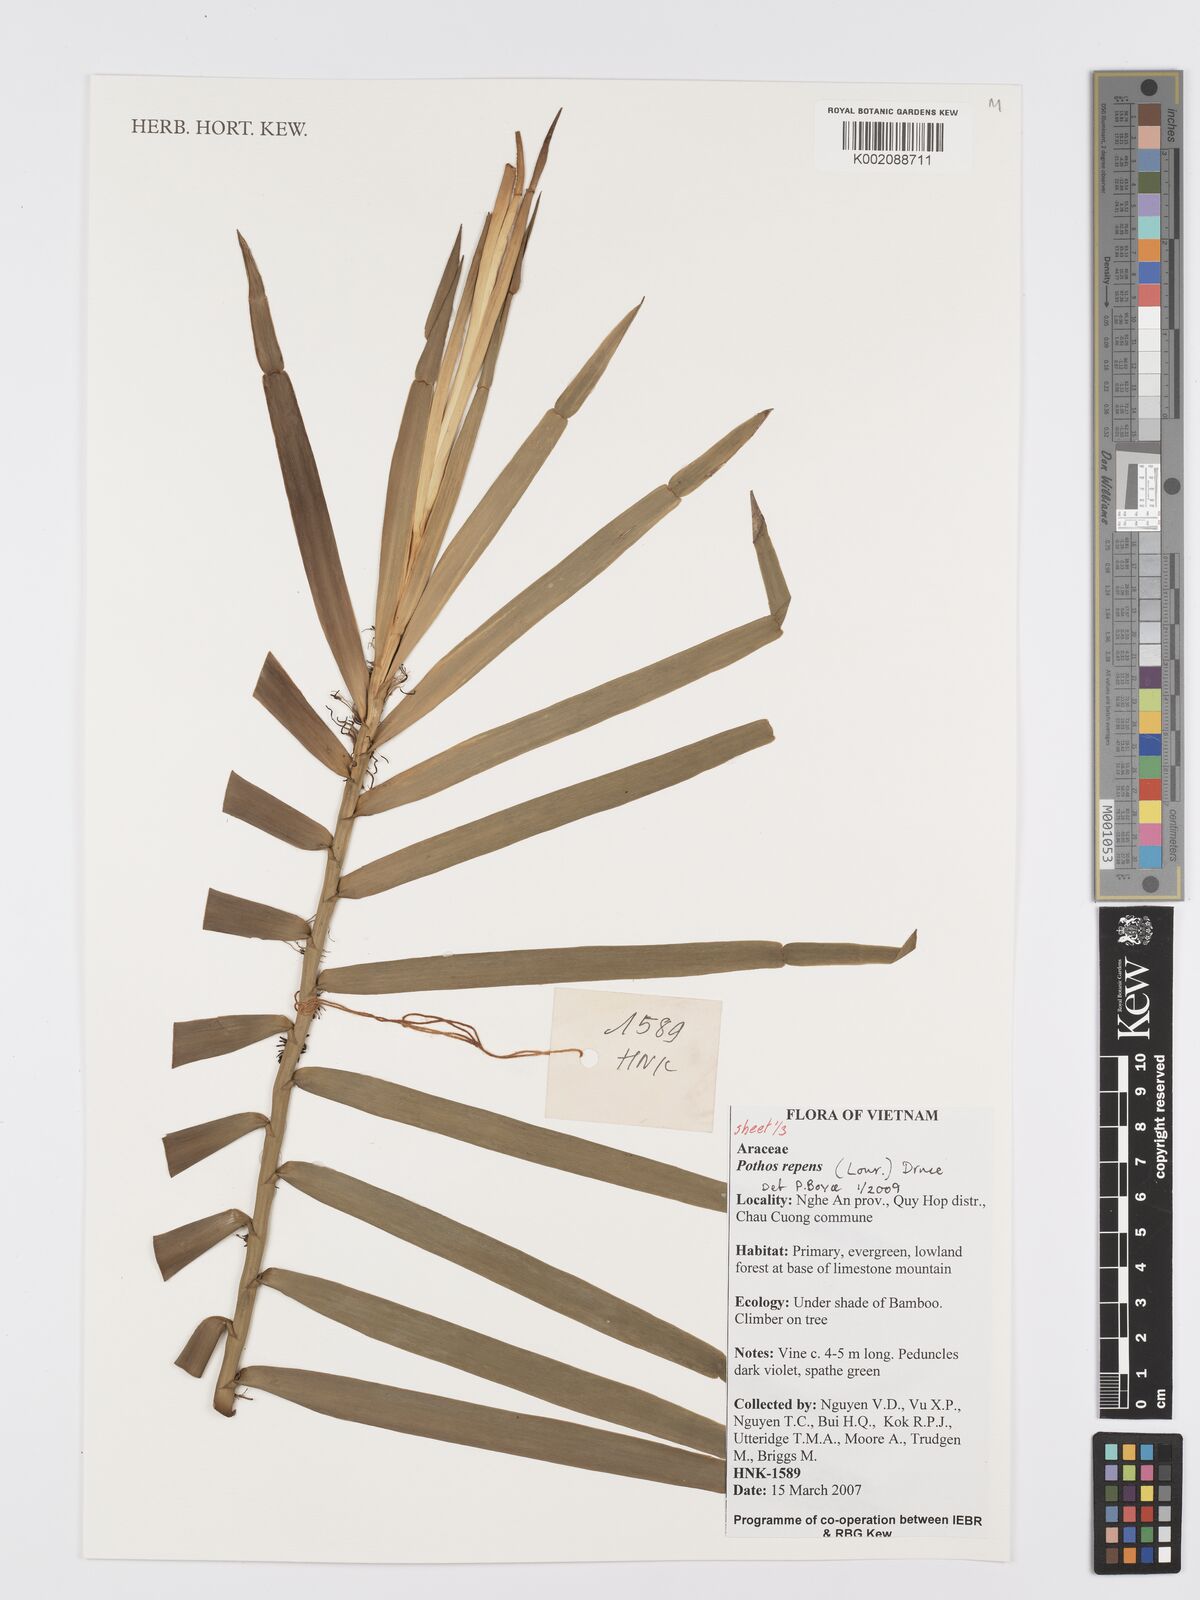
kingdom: Plantae
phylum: Tracheophyta
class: Liliopsida
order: Alismatales
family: Araceae
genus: Pothos
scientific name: Pothos repens
